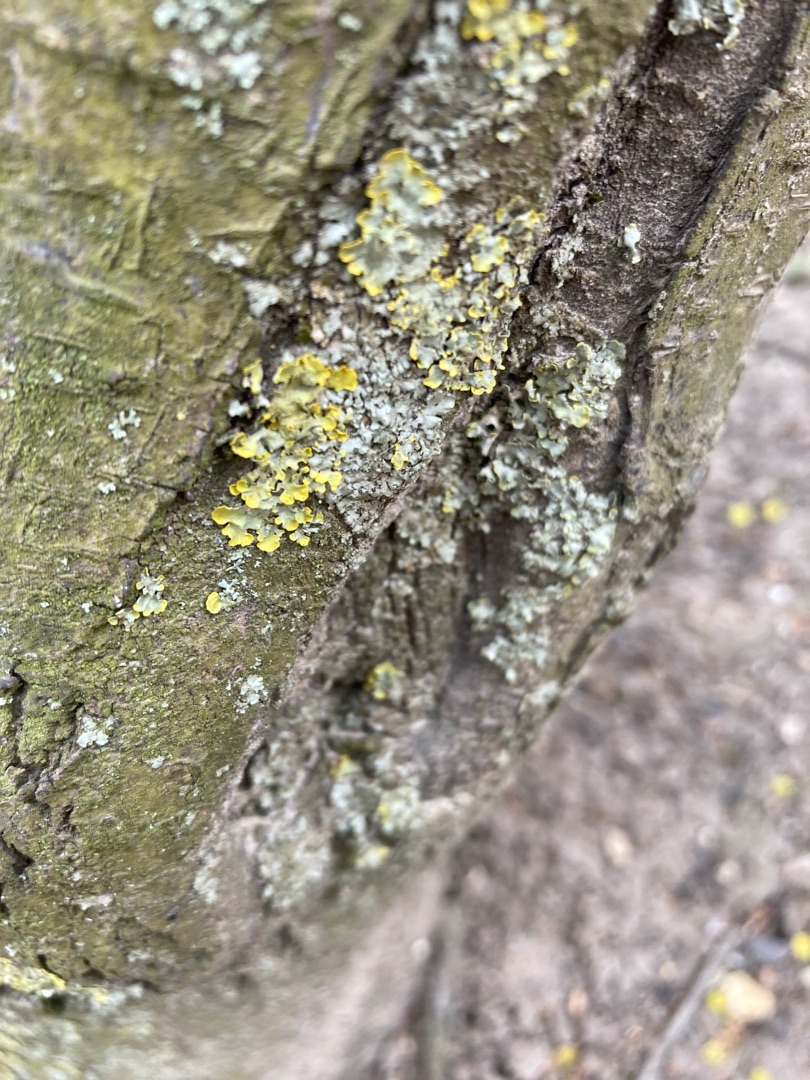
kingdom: Fungi
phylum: Ascomycota
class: Lecanoromycetes
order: Teloschistales
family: Teloschistaceae
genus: Xanthoria
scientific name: Xanthoria parietina
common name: Almindelig væggelav
